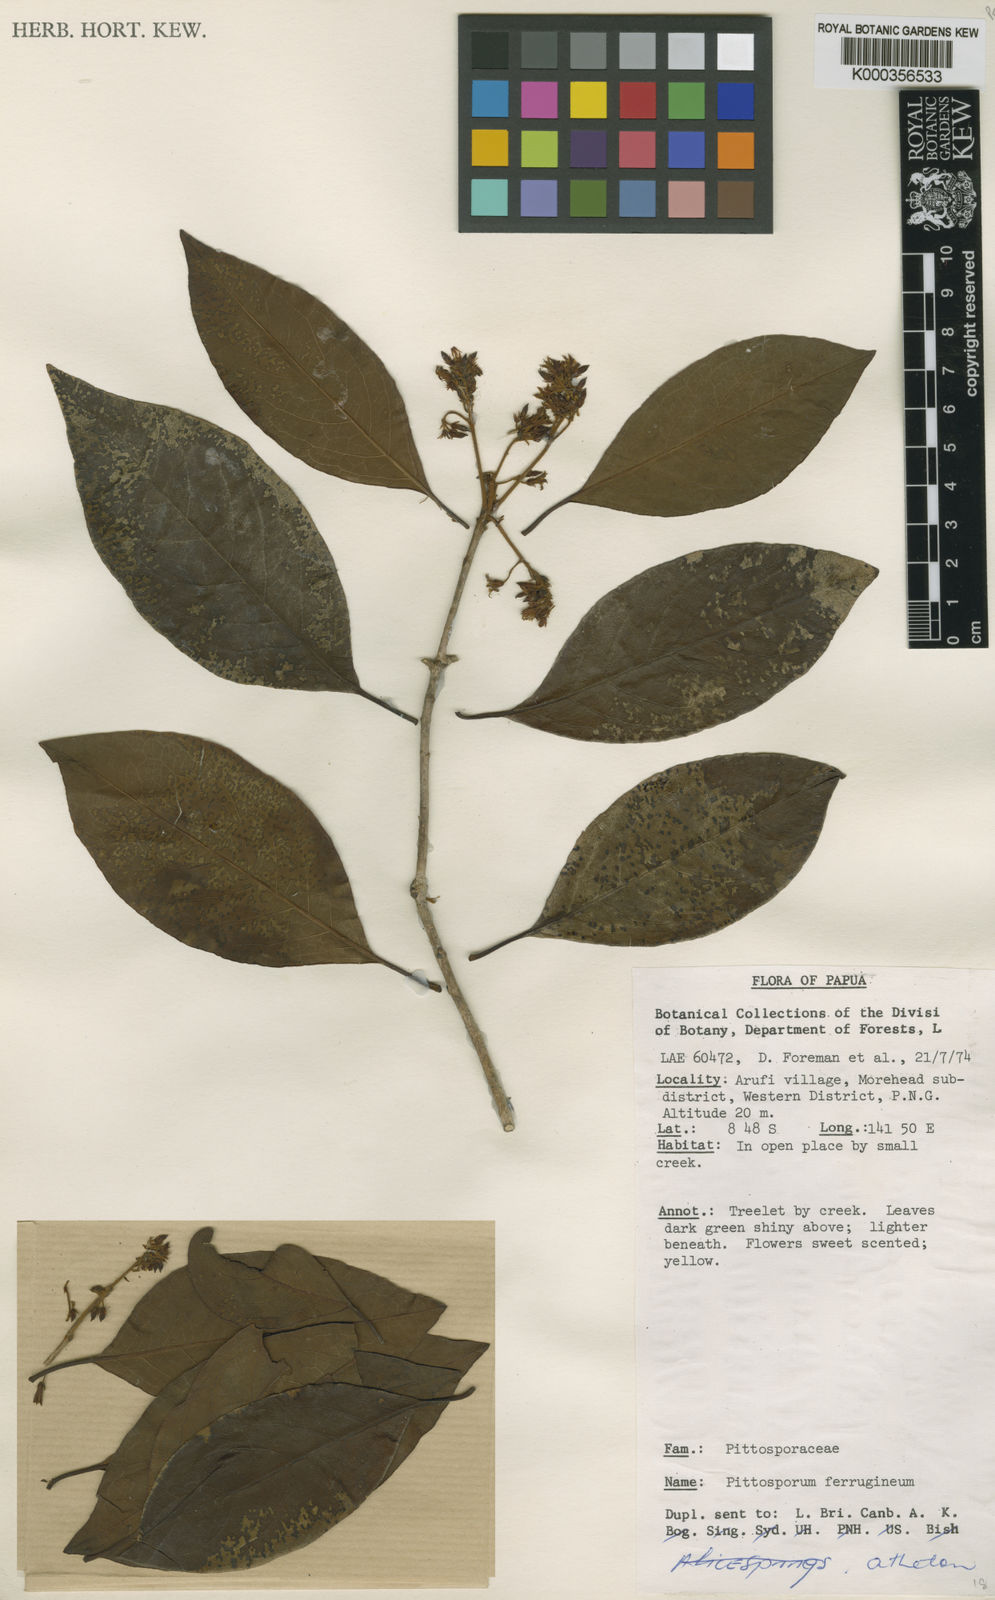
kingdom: Plantae
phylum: Tracheophyta
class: Magnoliopsida
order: Apiales
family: Pittosporaceae
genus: Pittosporum
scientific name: Pittosporum ferrugineum
